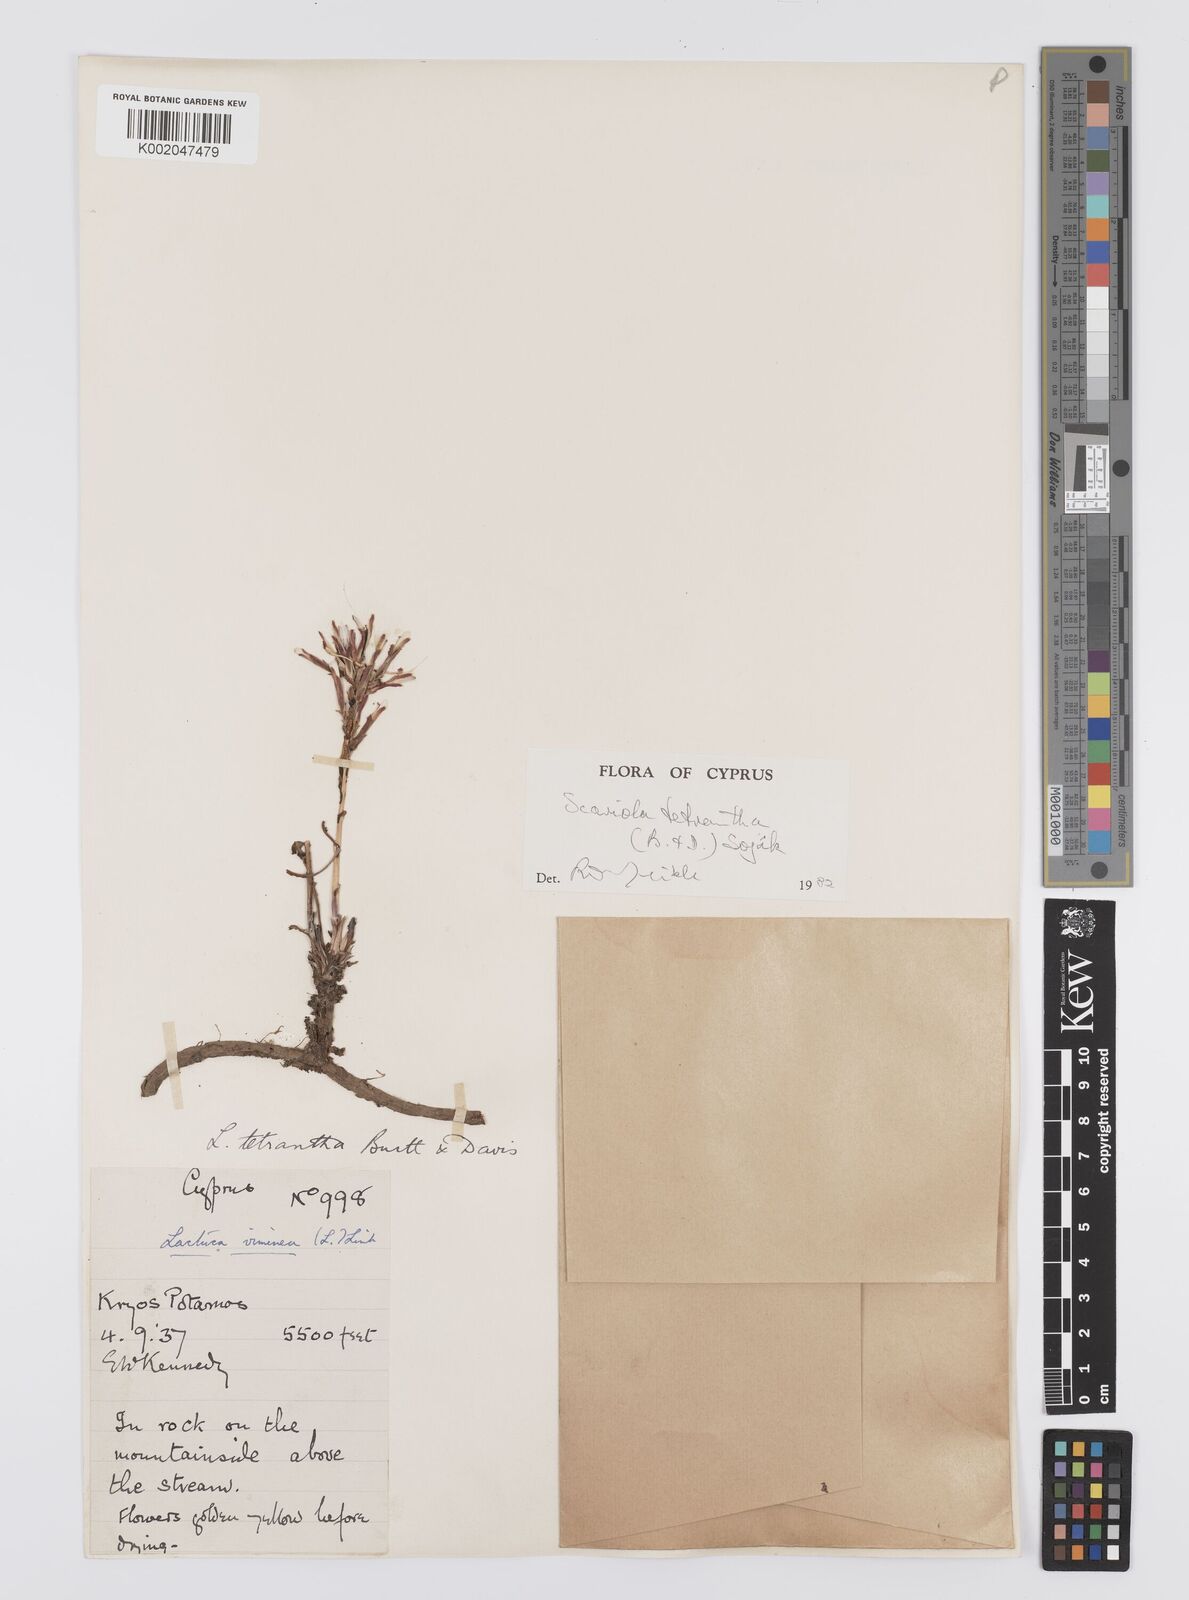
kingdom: Plantae
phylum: Tracheophyta
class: Magnoliopsida
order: Asterales
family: Asteraceae
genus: Lactuca
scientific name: Lactuca tetrantha
